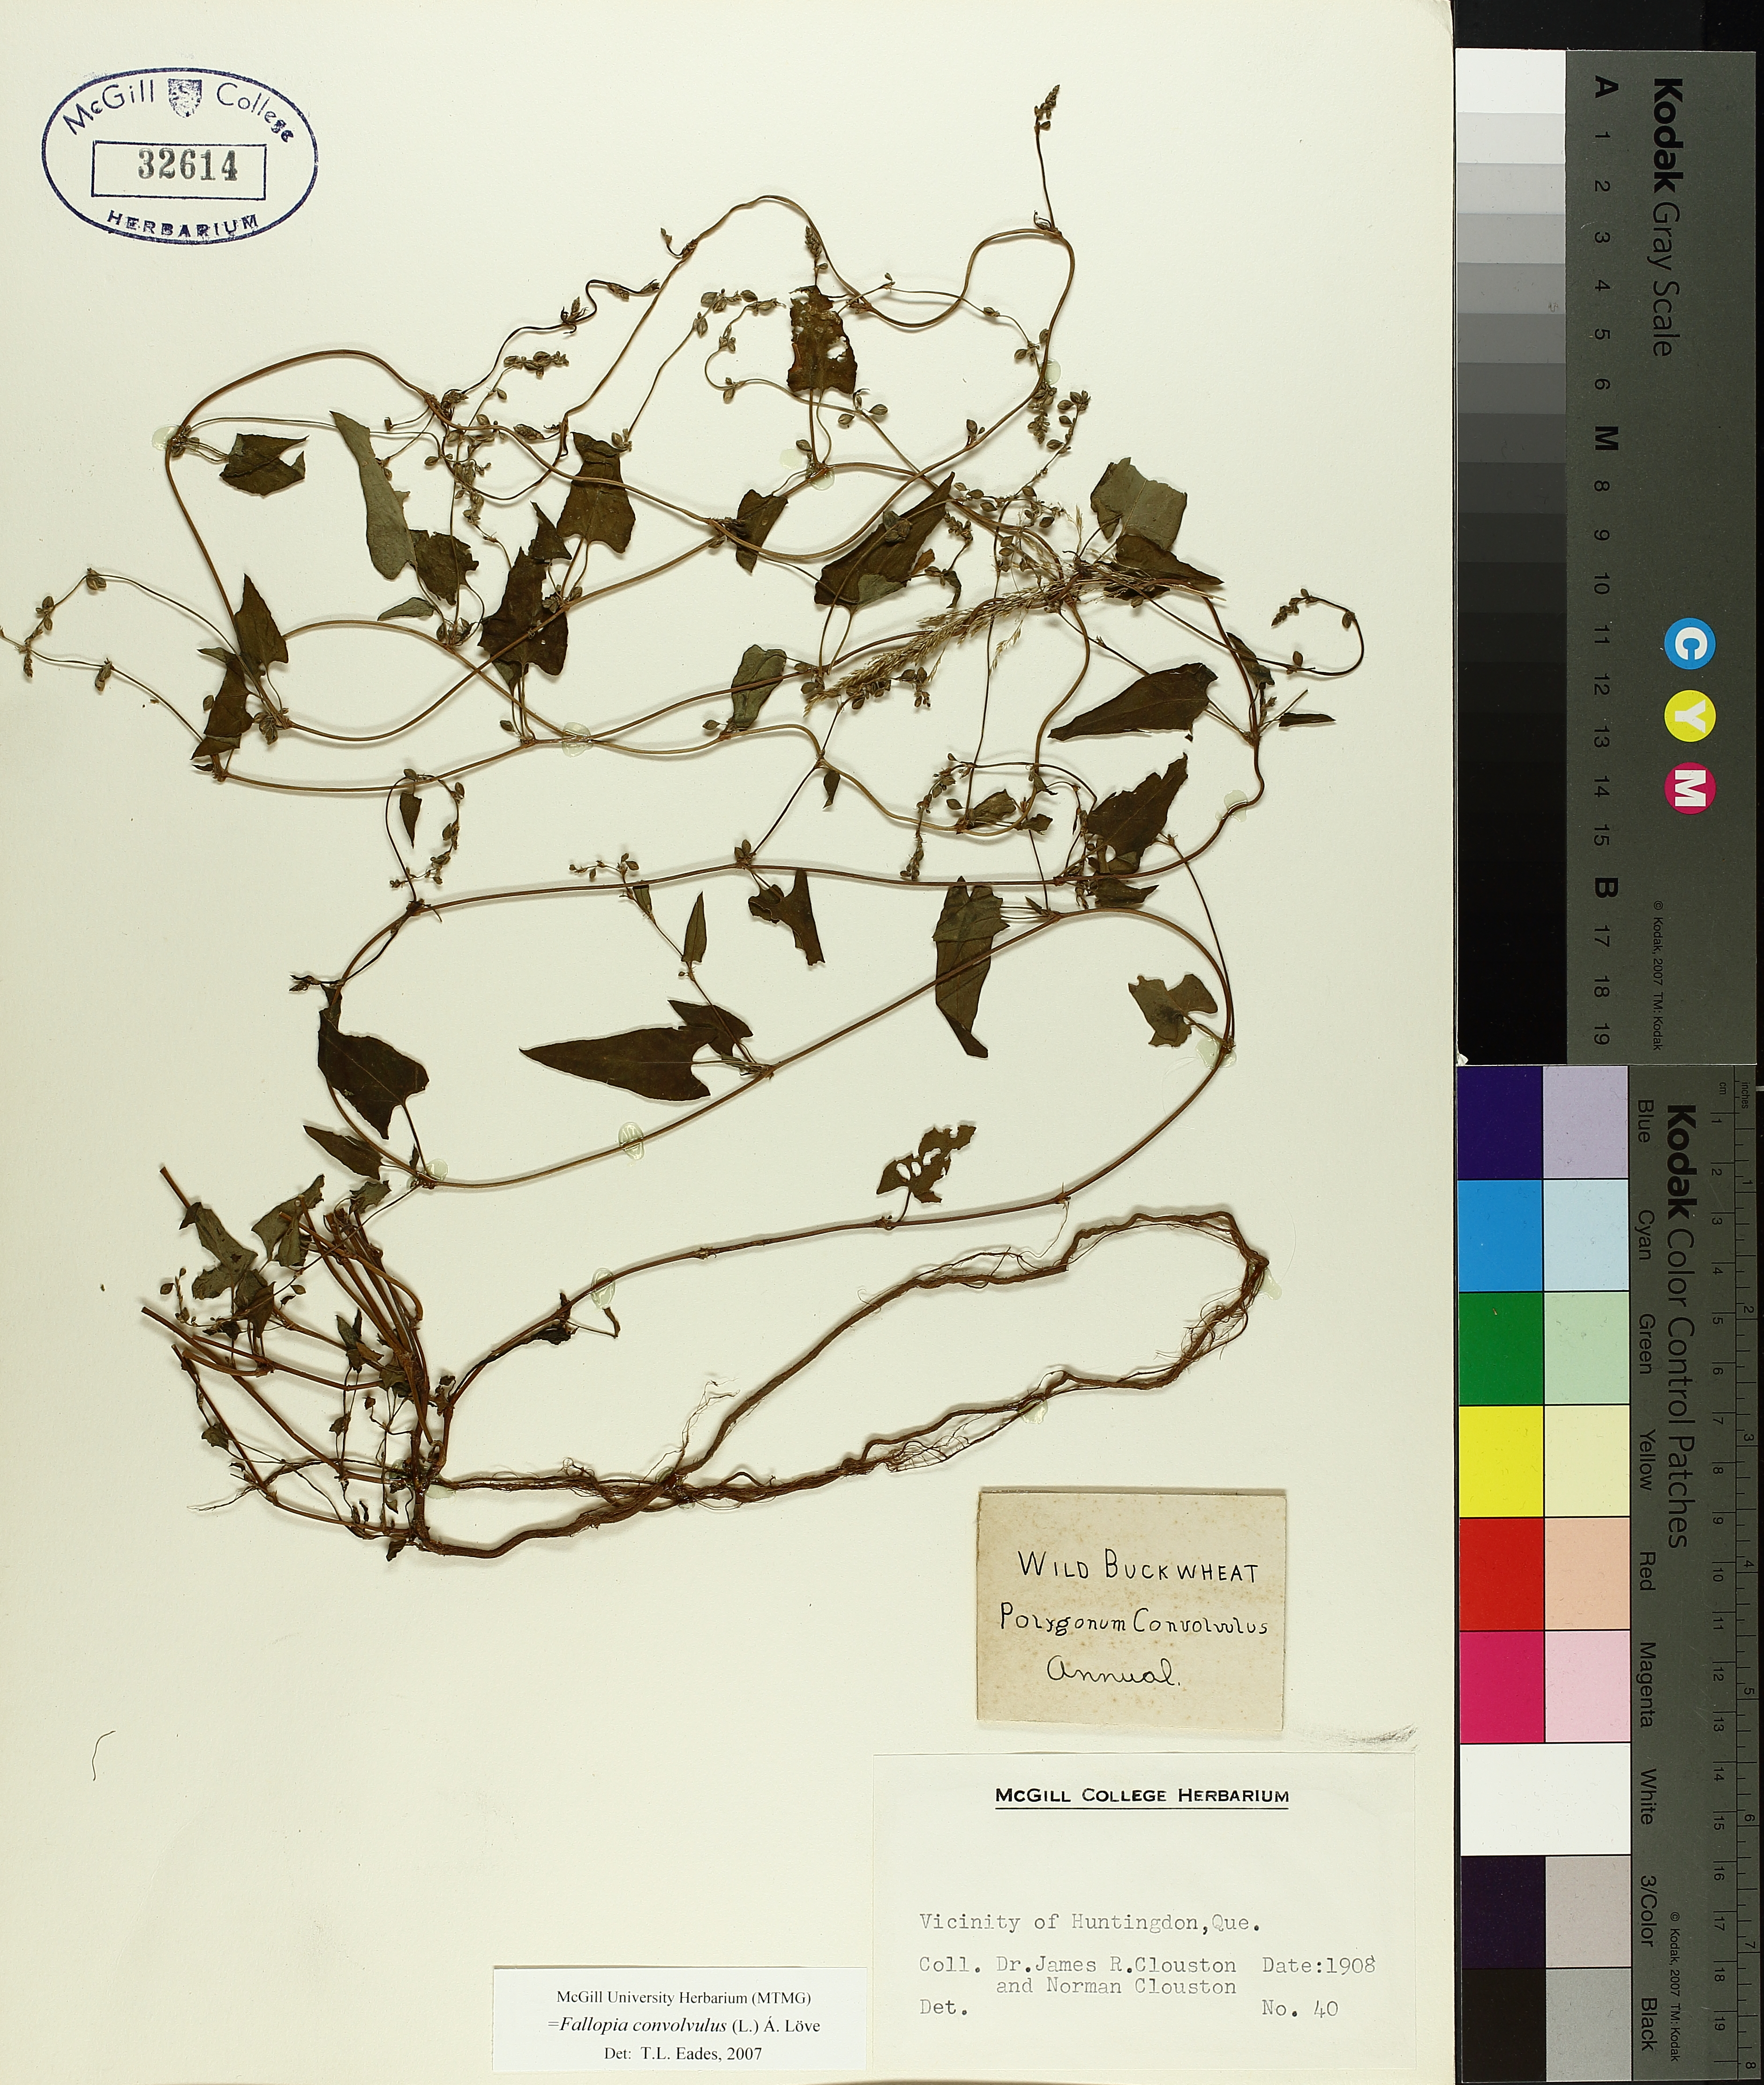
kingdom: Plantae
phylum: Tracheophyta
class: Magnoliopsida
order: Caryophyllales
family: Polygonaceae
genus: Fallopia
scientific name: Fallopia convolvulus
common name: Black bindweed
